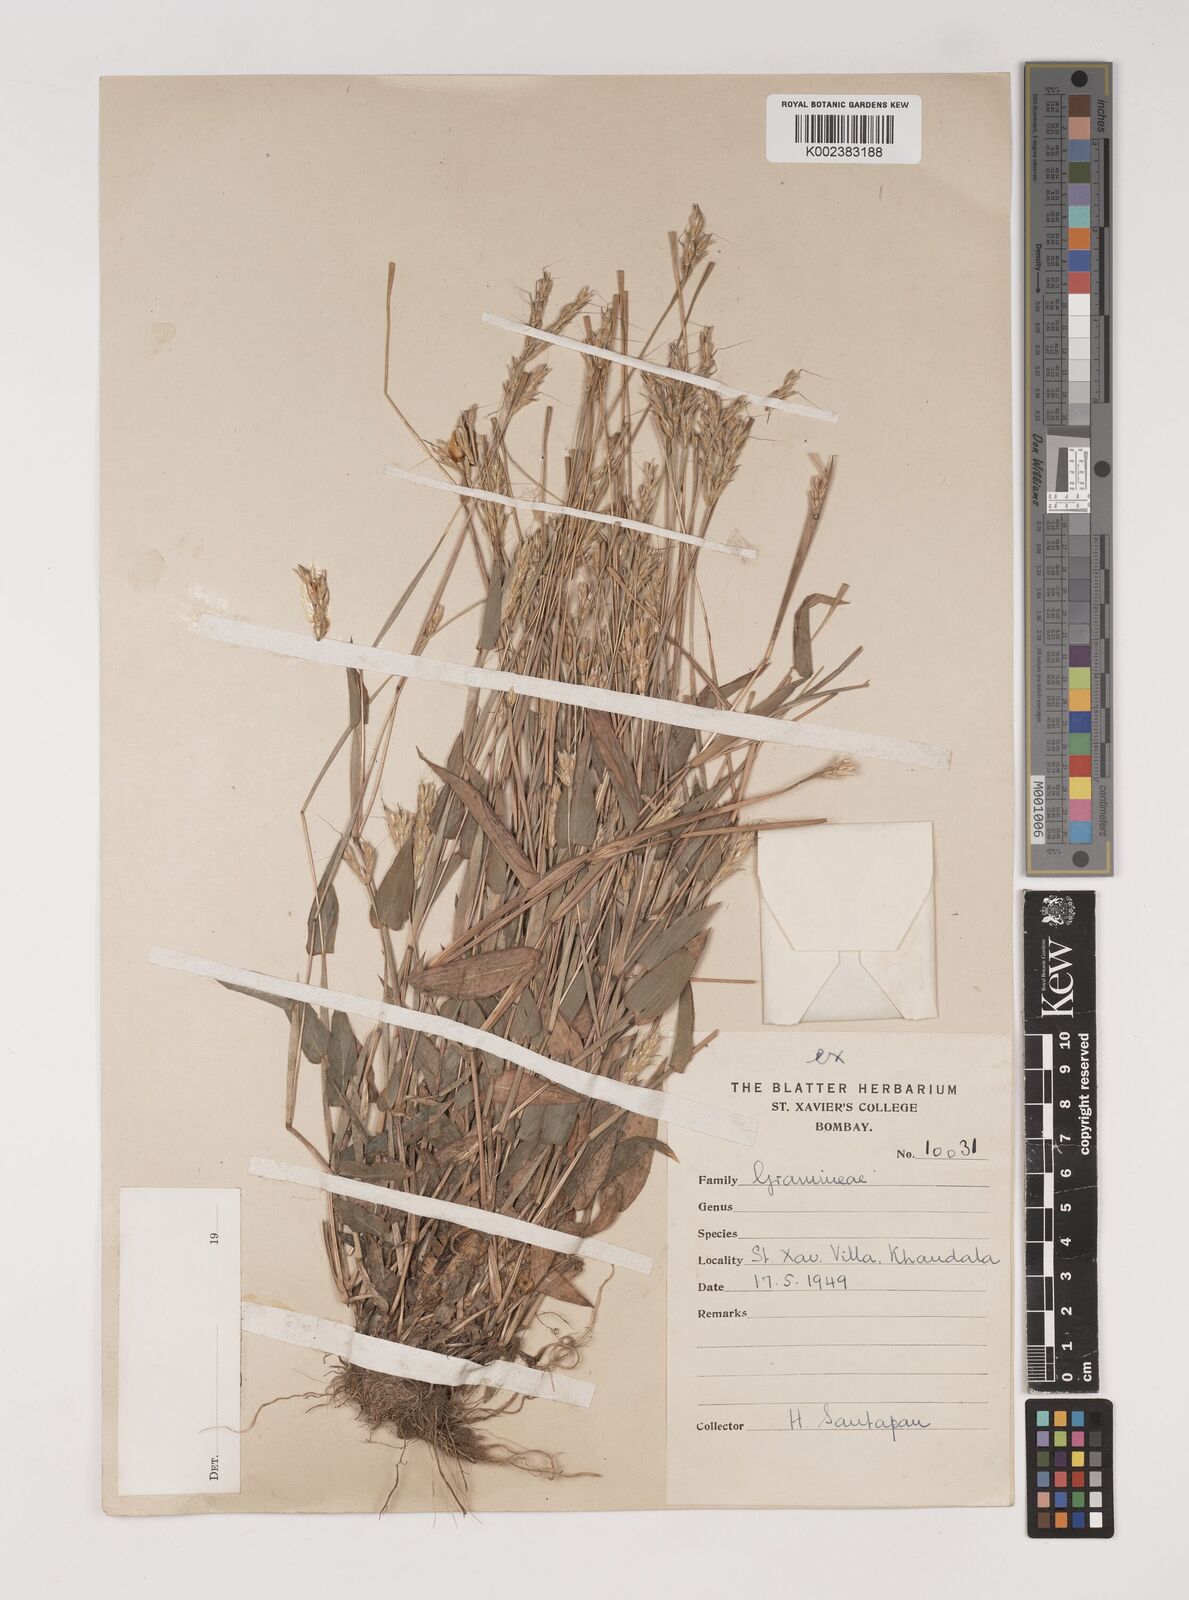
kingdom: Plantae
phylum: Tracheophyta
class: Liliopsida
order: Poales
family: Poaceae
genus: Ischaemum
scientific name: Ischaemum tumidum
